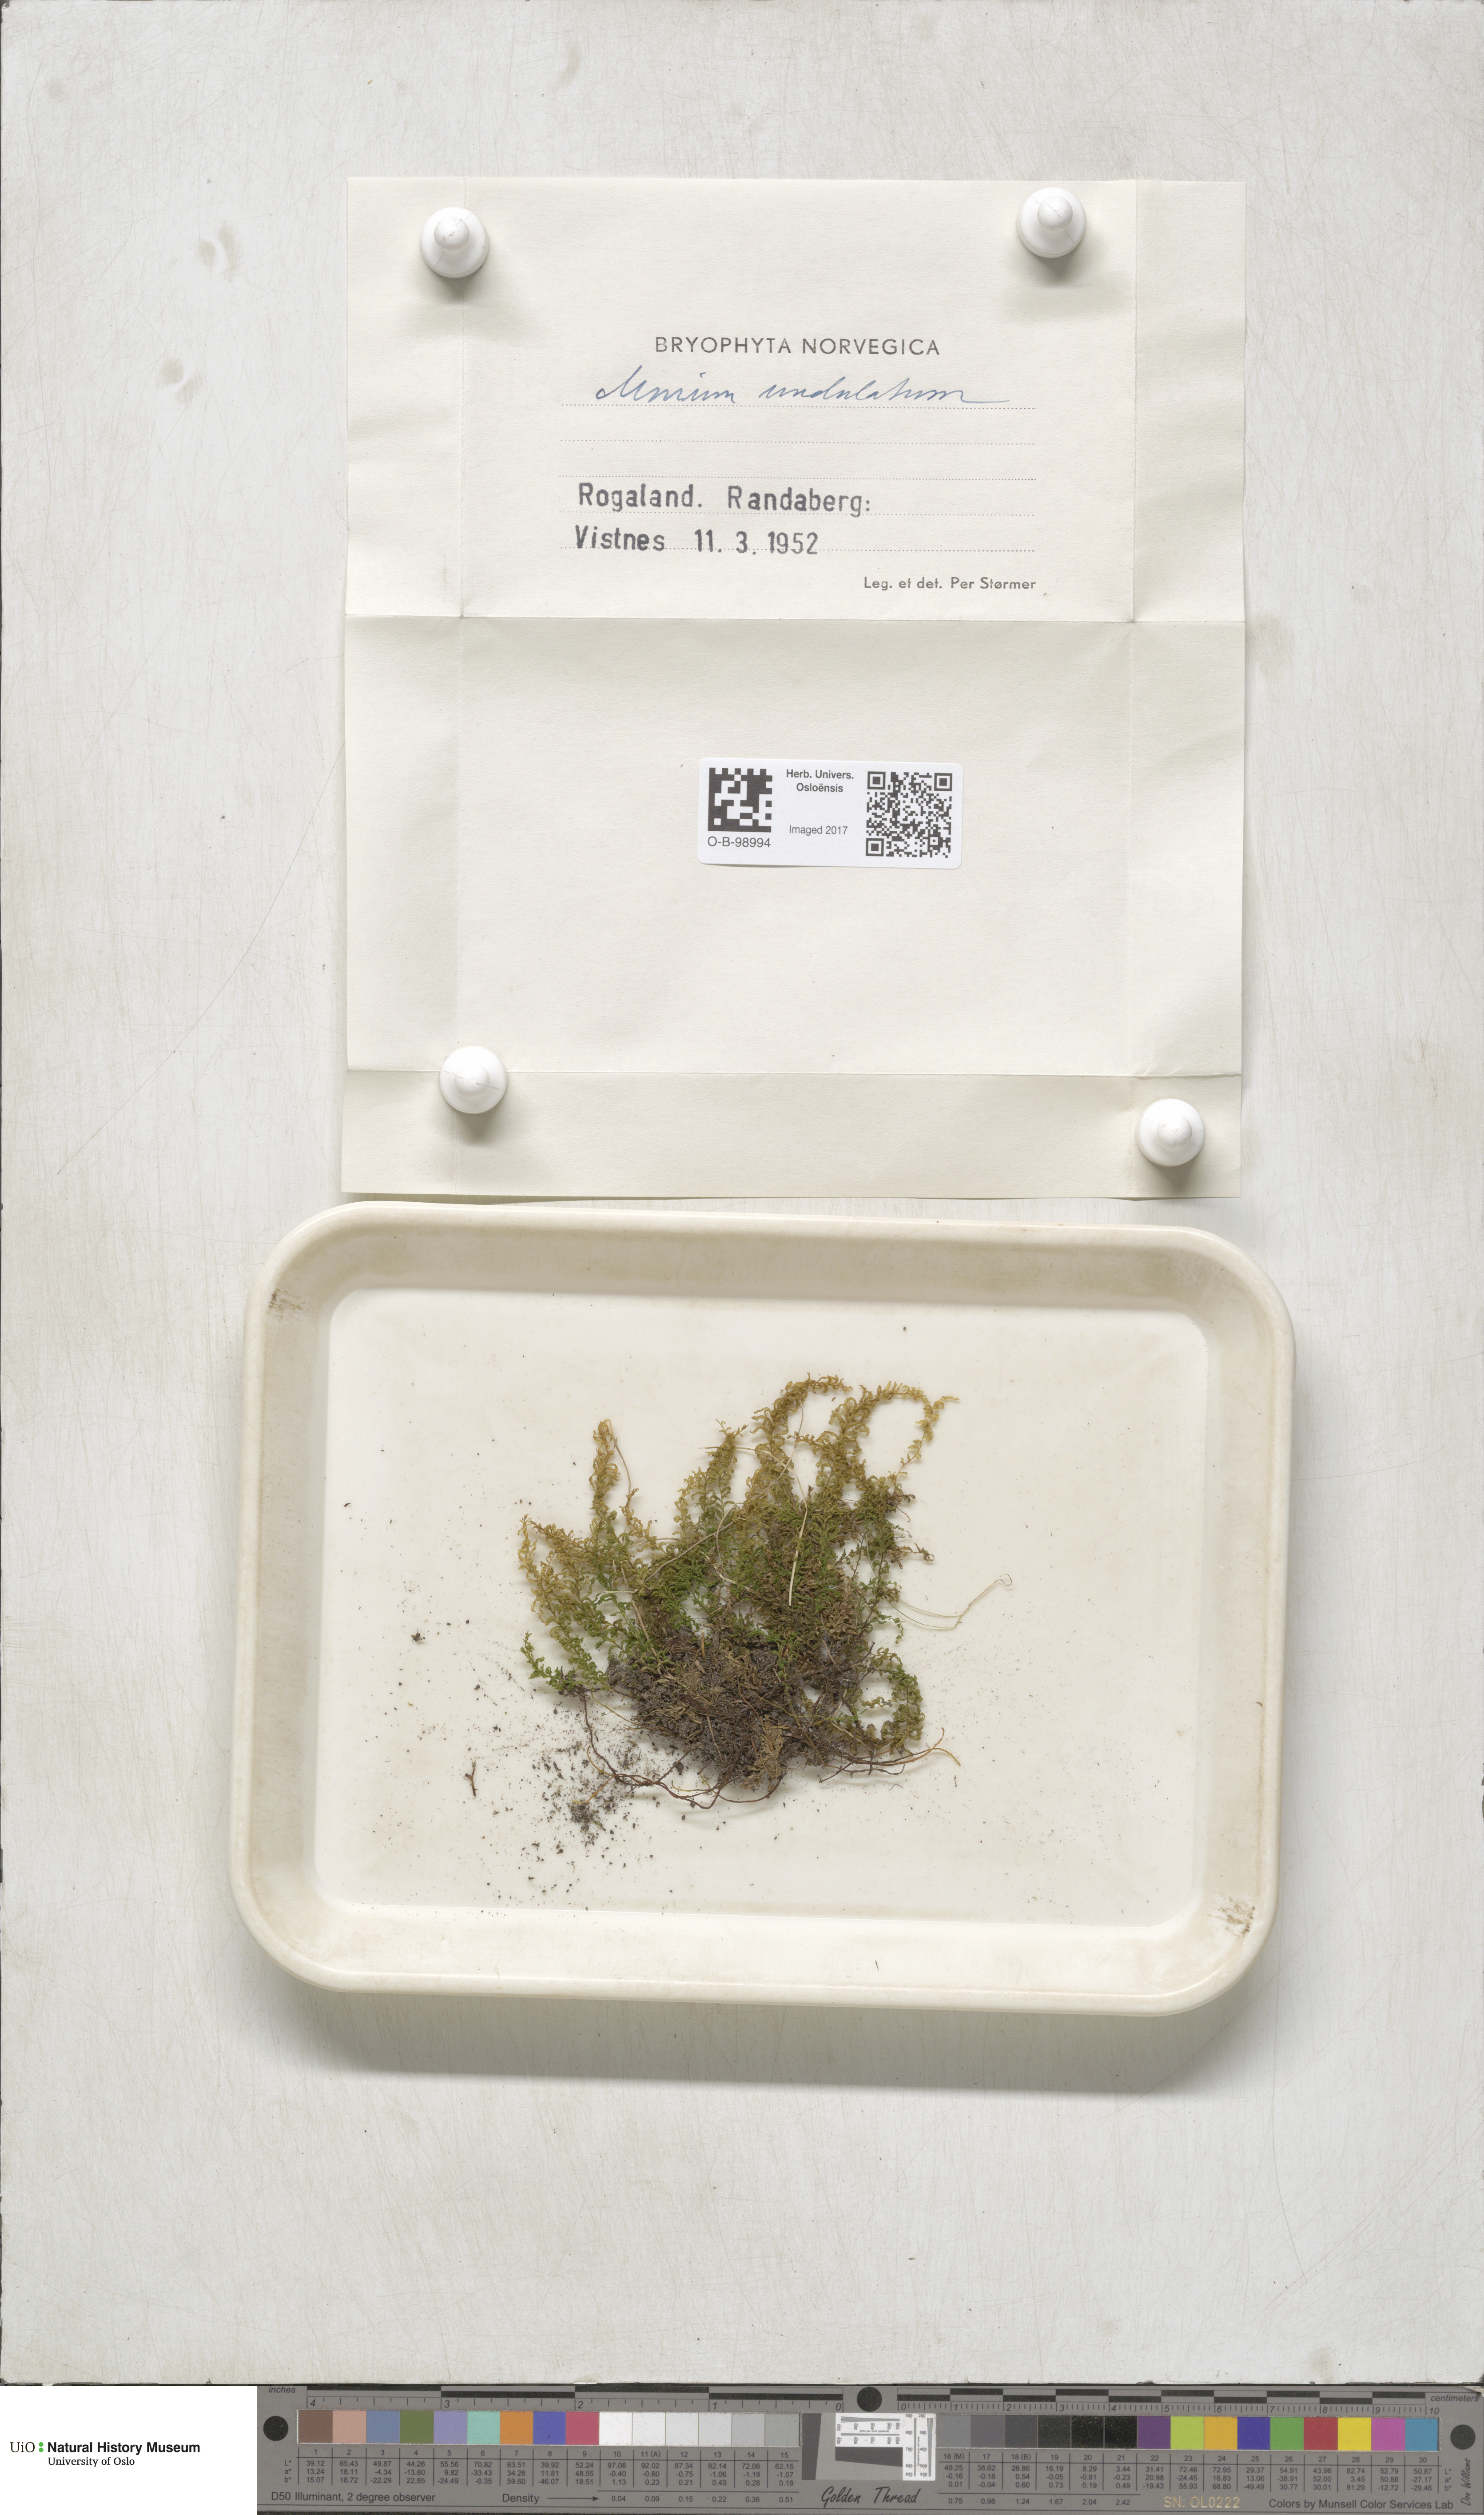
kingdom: Plantae
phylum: Bryophyta
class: Bryopsida
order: Bryales
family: Mniaceae
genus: Plagiomnium
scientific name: Plagiomnium undulatum
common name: Hart's-tongue thyme-moss
